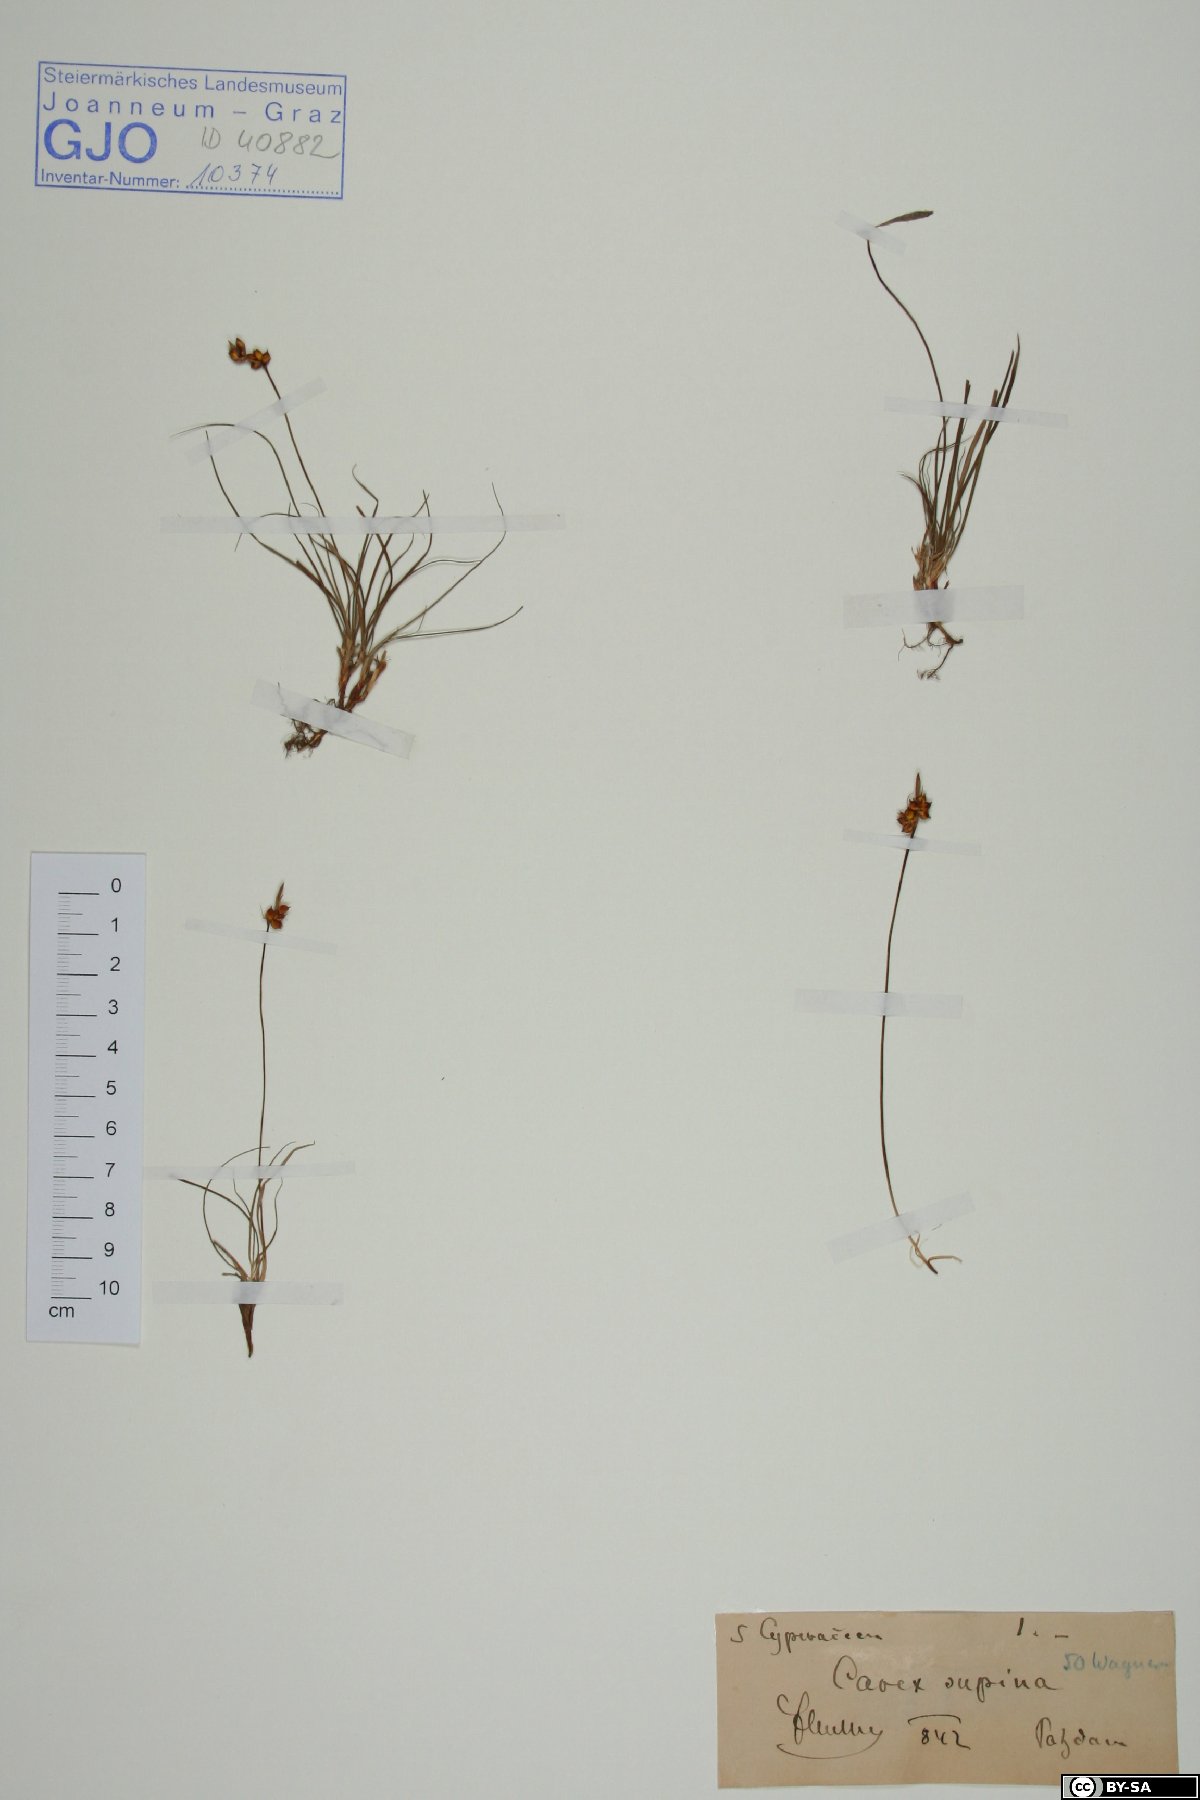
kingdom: Plantae
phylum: Tracheophyta
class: Liliopsida
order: Poales
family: Cyperaceae
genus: Carex
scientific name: Carex supina
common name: Lying-back sedge
